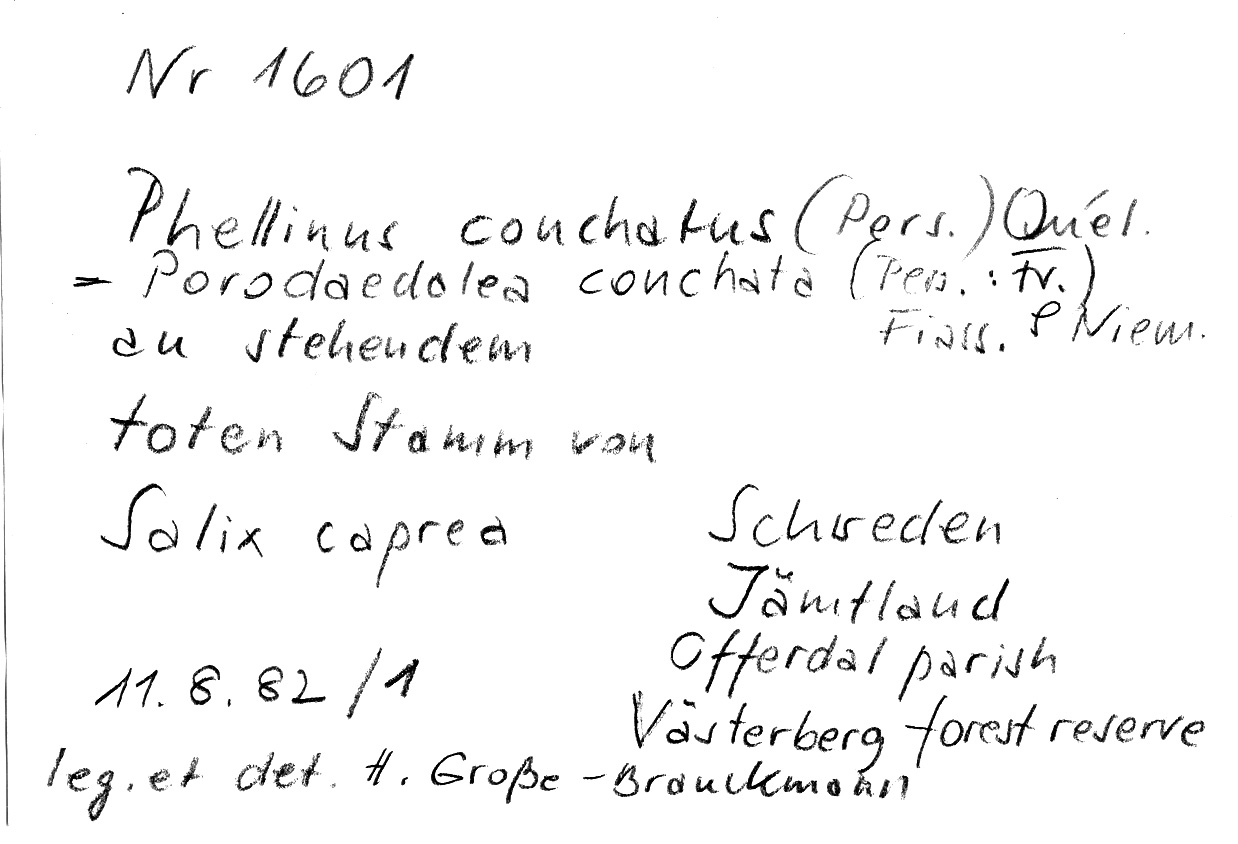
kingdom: Fungi
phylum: Basidiomycota
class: Agaricomycetes
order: Hymenochaetales
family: Hymenochaetaceae
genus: Phellinopsis
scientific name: Phellinopsis conchata
